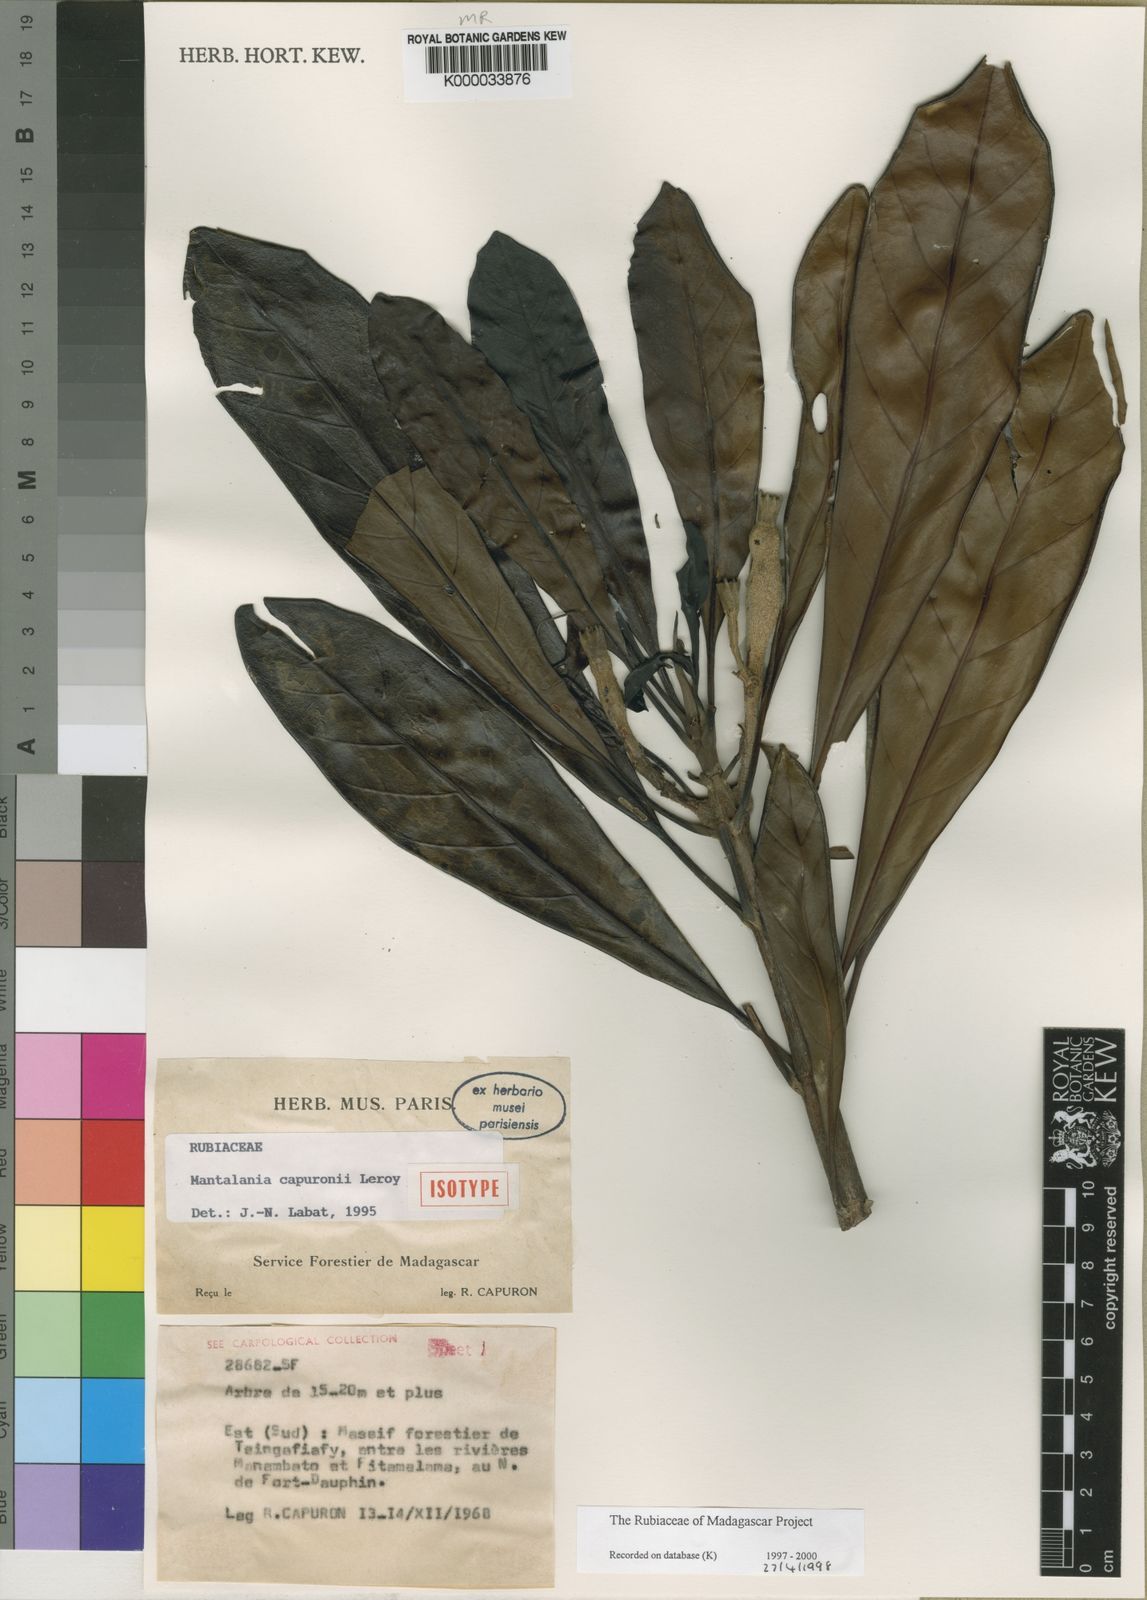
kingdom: Plantae
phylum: Tracheophyta
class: Magnoliopsida
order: Gentianales
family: Rubiaceae
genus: Mantalania
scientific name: Mantalania capuronii
